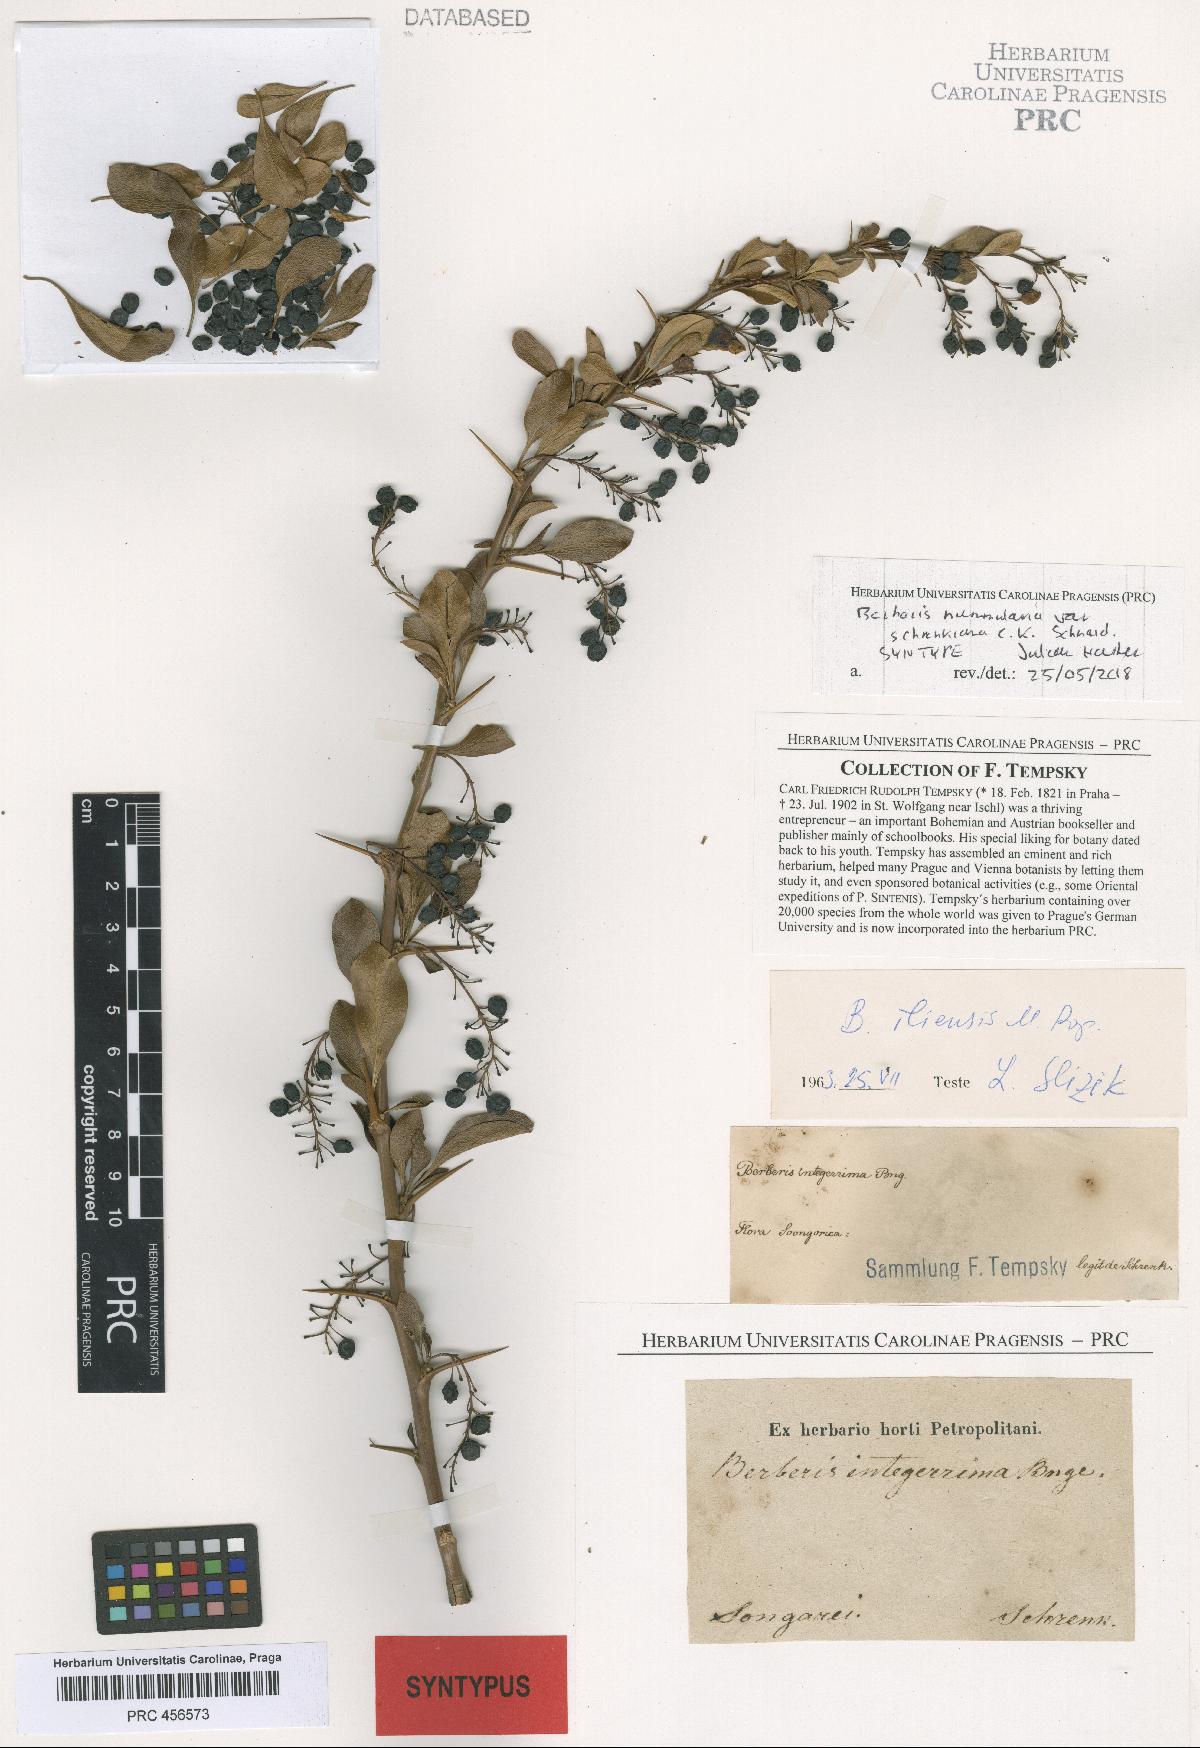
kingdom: Plantae
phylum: Tracheophyta
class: Magnoliopsida
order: Ranunculales
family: Berberidaceae
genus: Berberis
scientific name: Berberis integerrima
